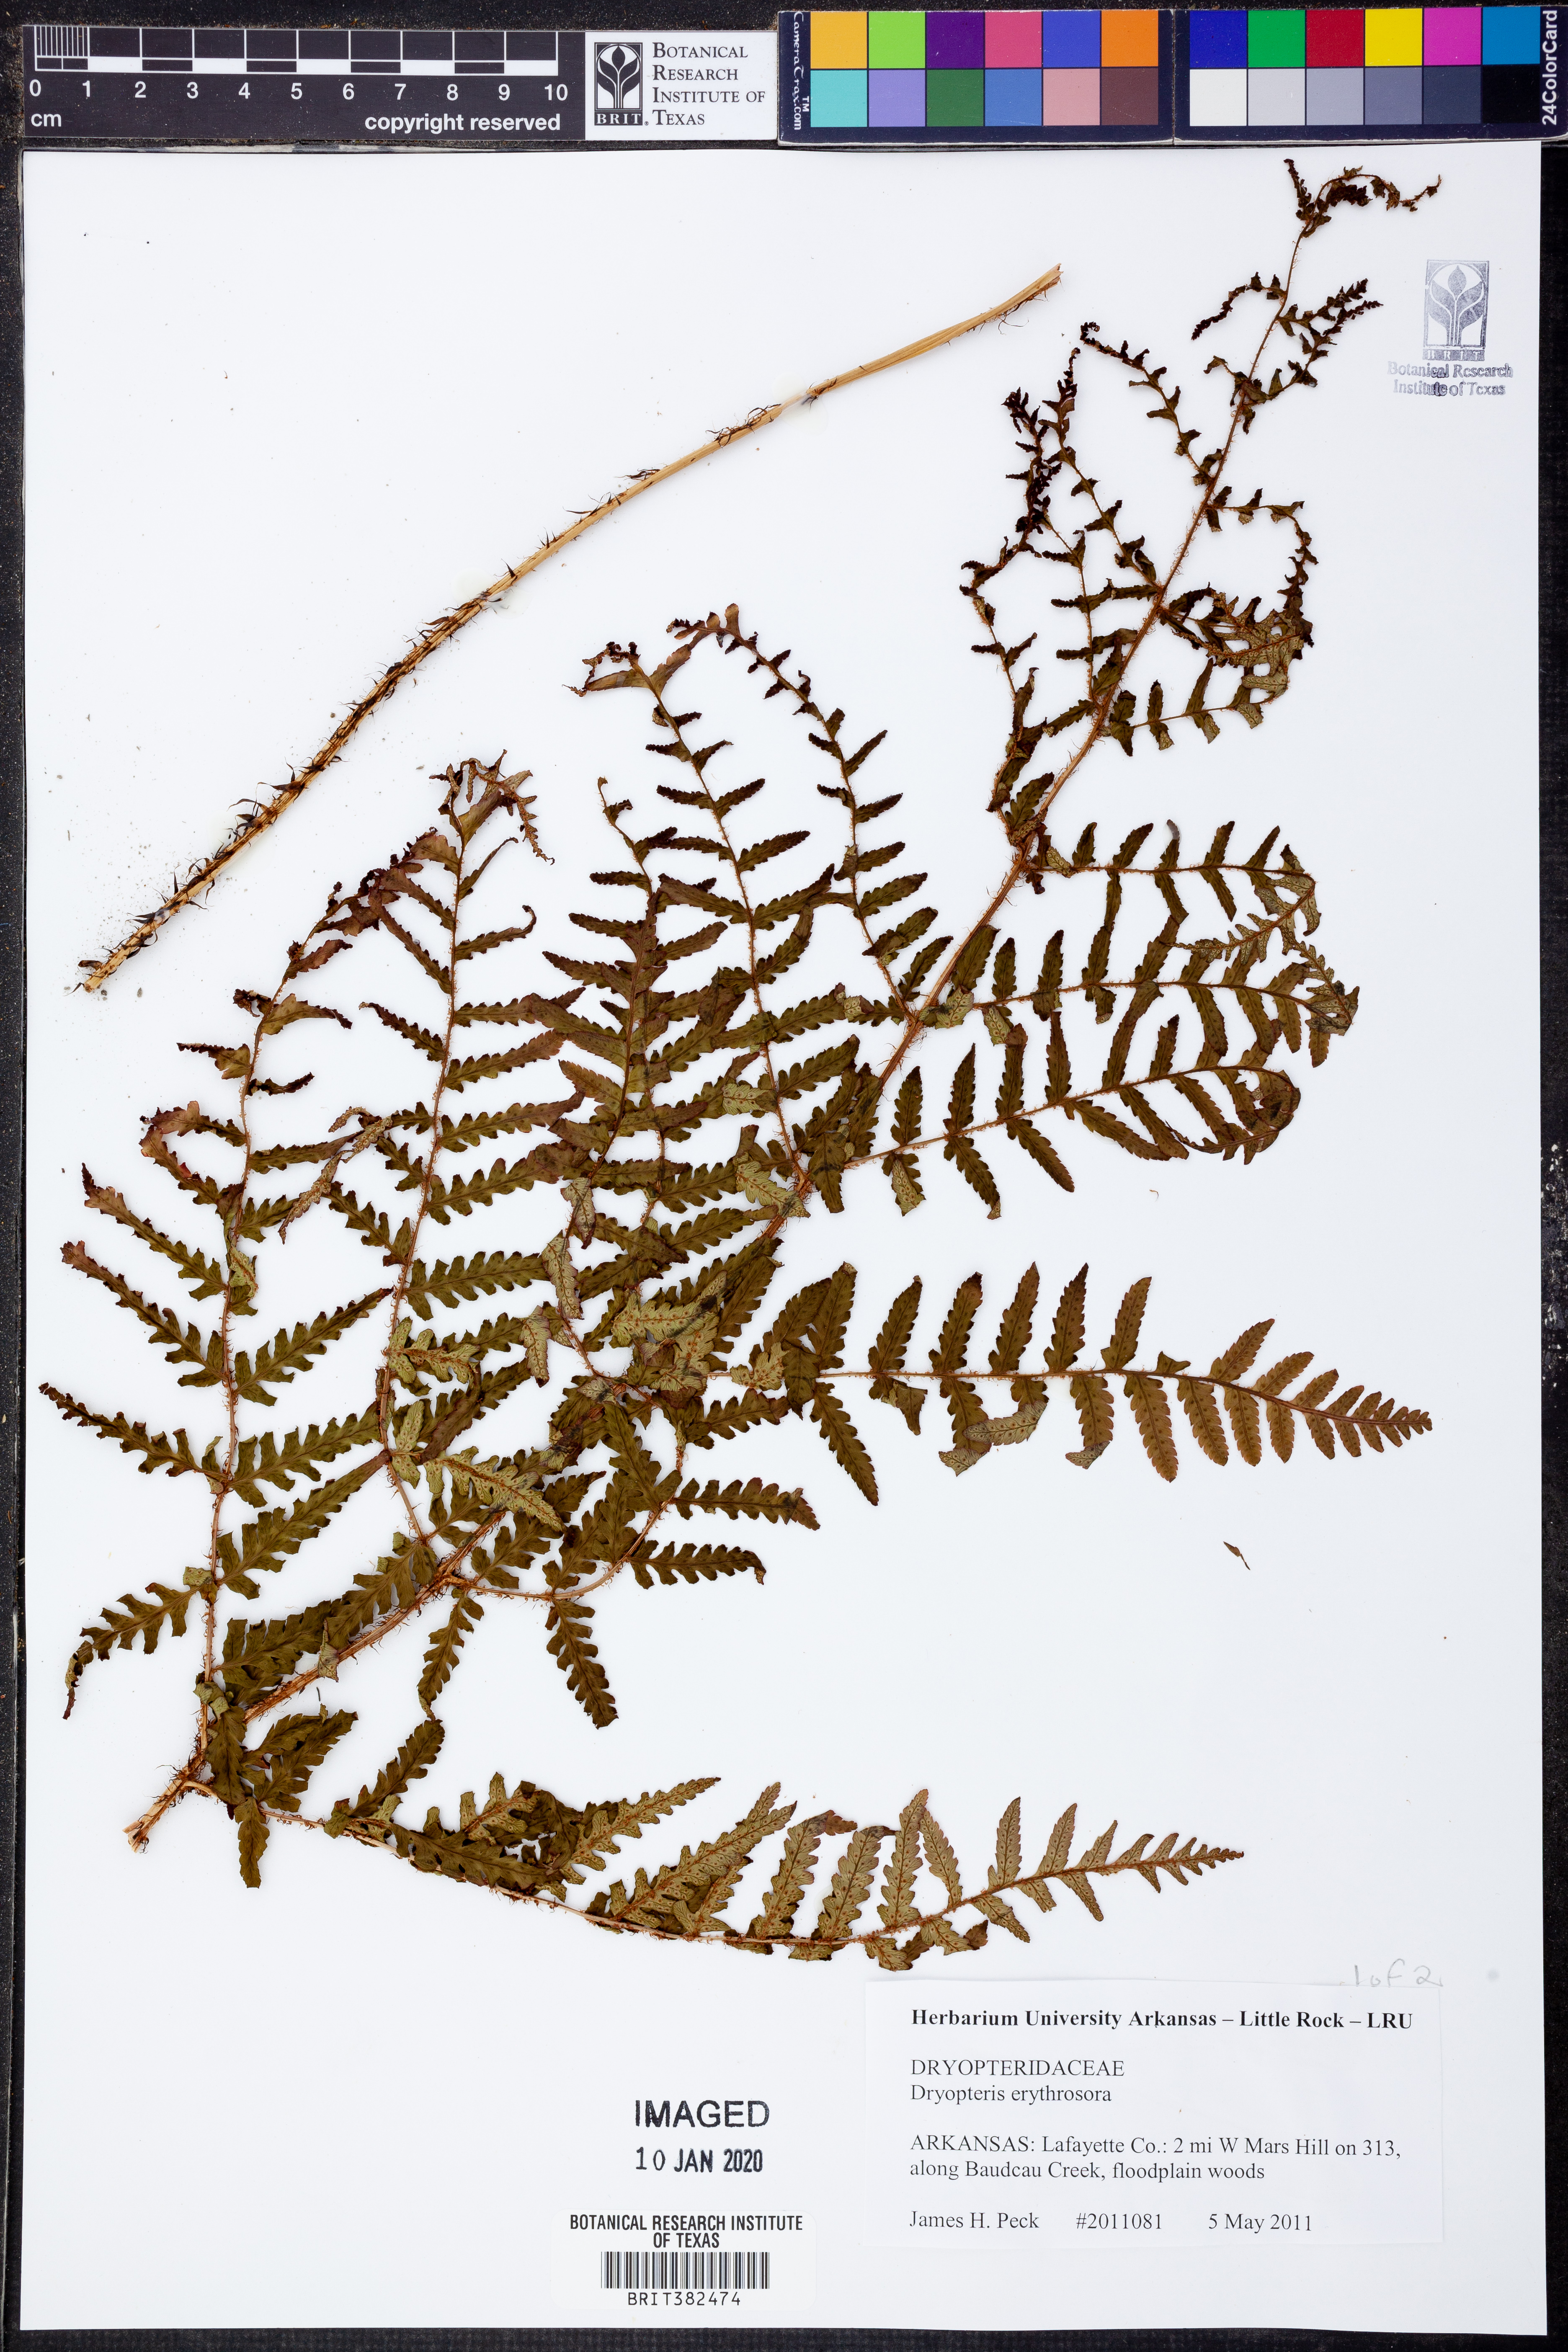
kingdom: Plantae
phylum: Tracheophyta
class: Polypodiopsida
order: Polypodiales
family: Dryopteridaceae
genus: Dryopteris
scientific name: Dryopteris erythrosora
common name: Autumn fern
